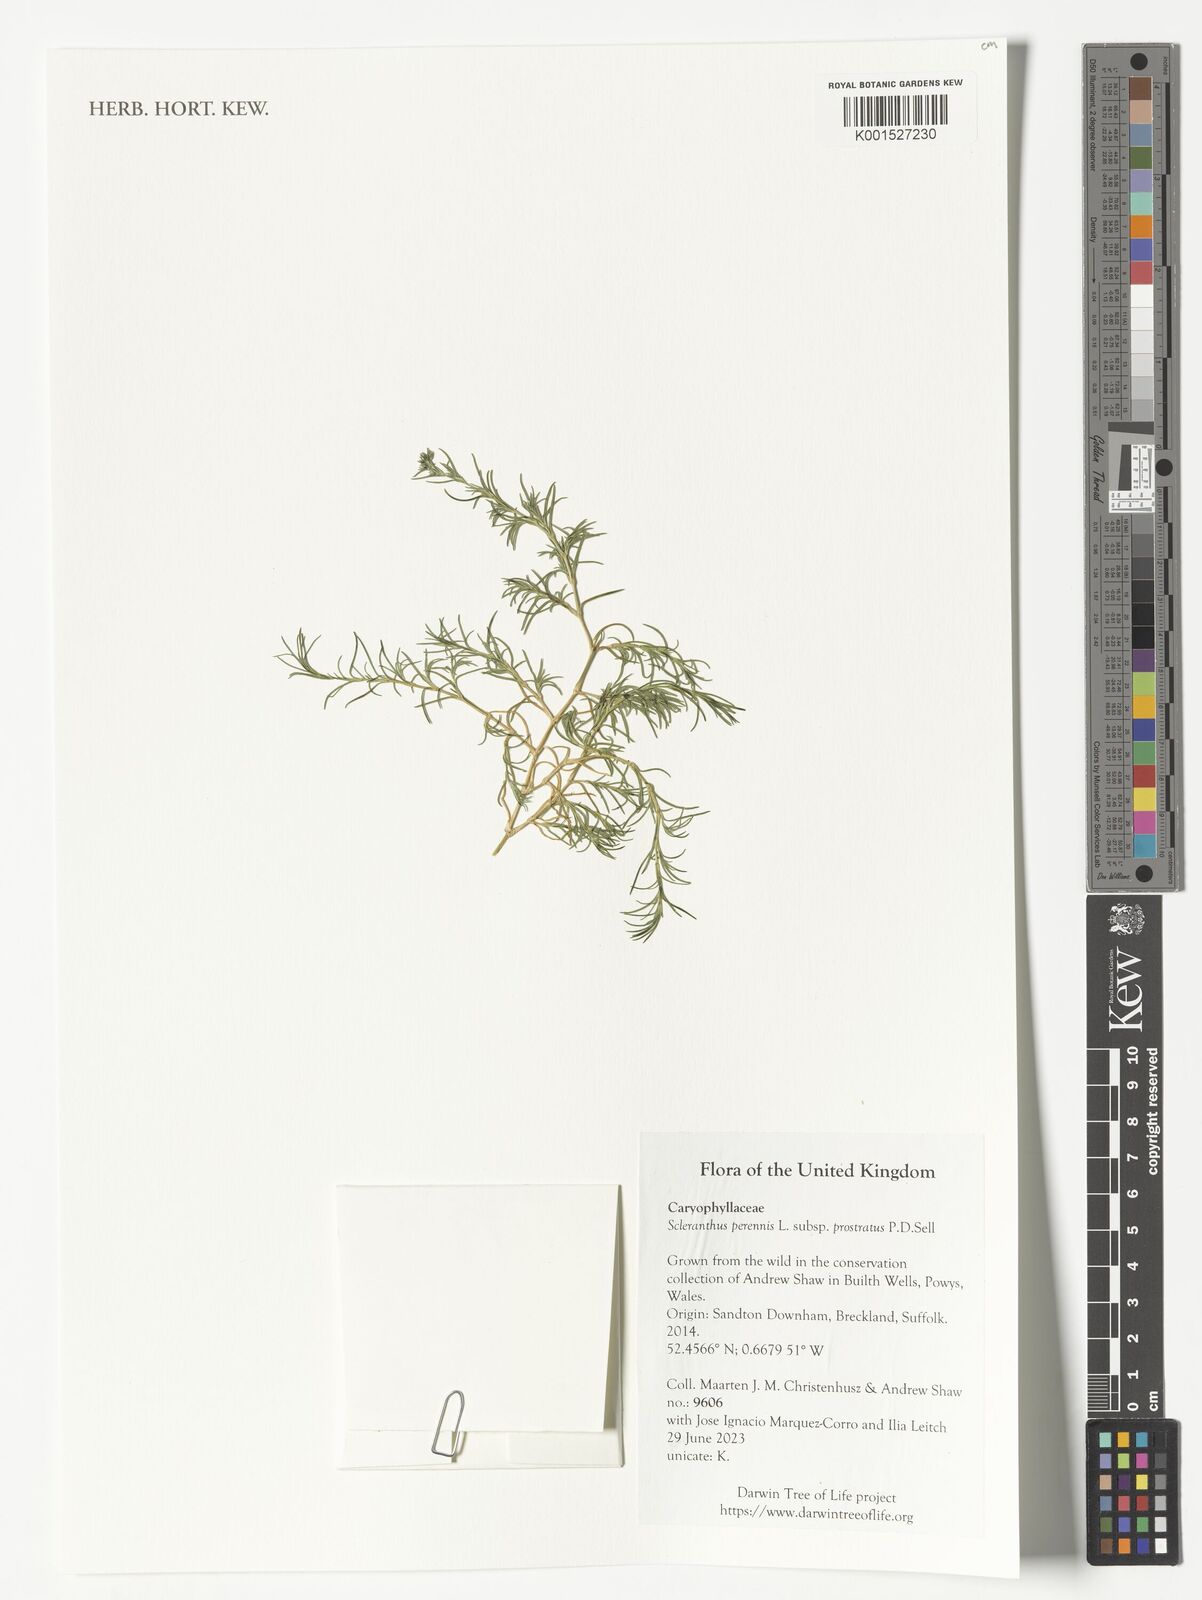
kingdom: Plantae
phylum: Tracheophyta
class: Magnoliopsida
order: Caryophyllales
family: Caryophyllaceae
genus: Scleranthus
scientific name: Scleranthus perennis
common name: Perennial knawel
